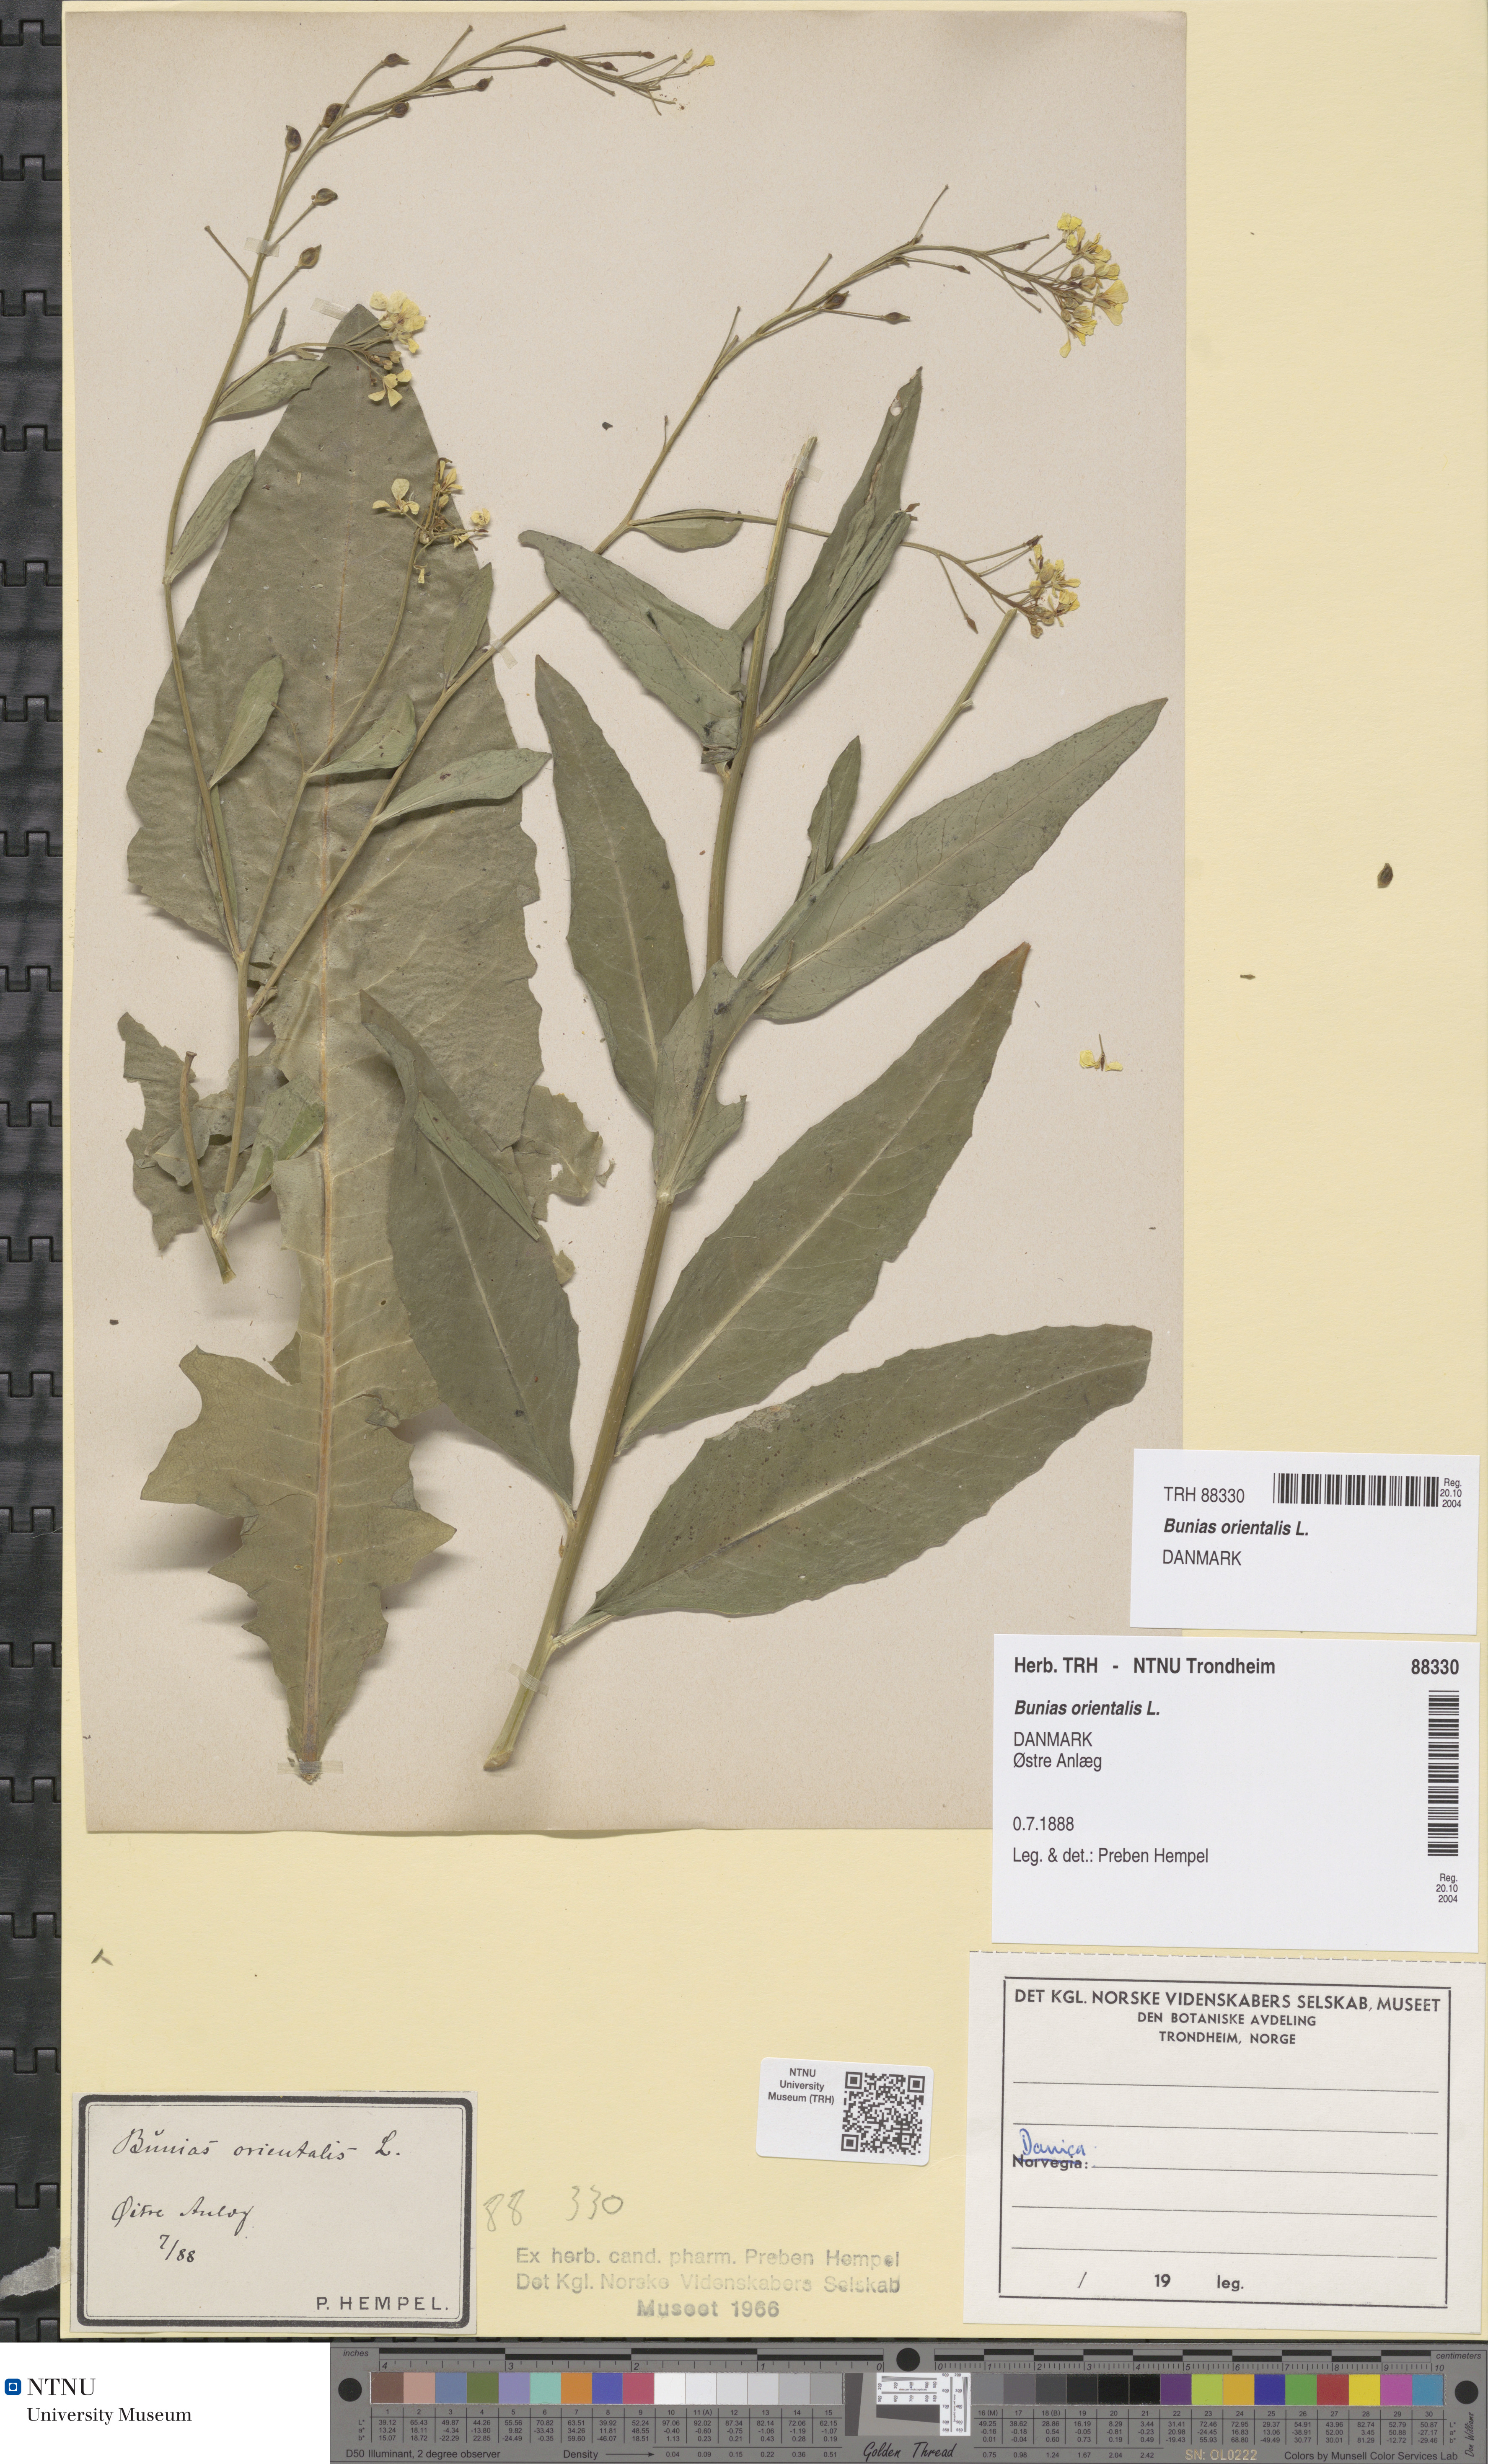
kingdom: Plantae
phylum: Tracheophyta
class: Magnoliopsida
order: Brassicales
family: Brassicaceae
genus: Bunias
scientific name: Bunias orientalis
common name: Warty-cabbage
